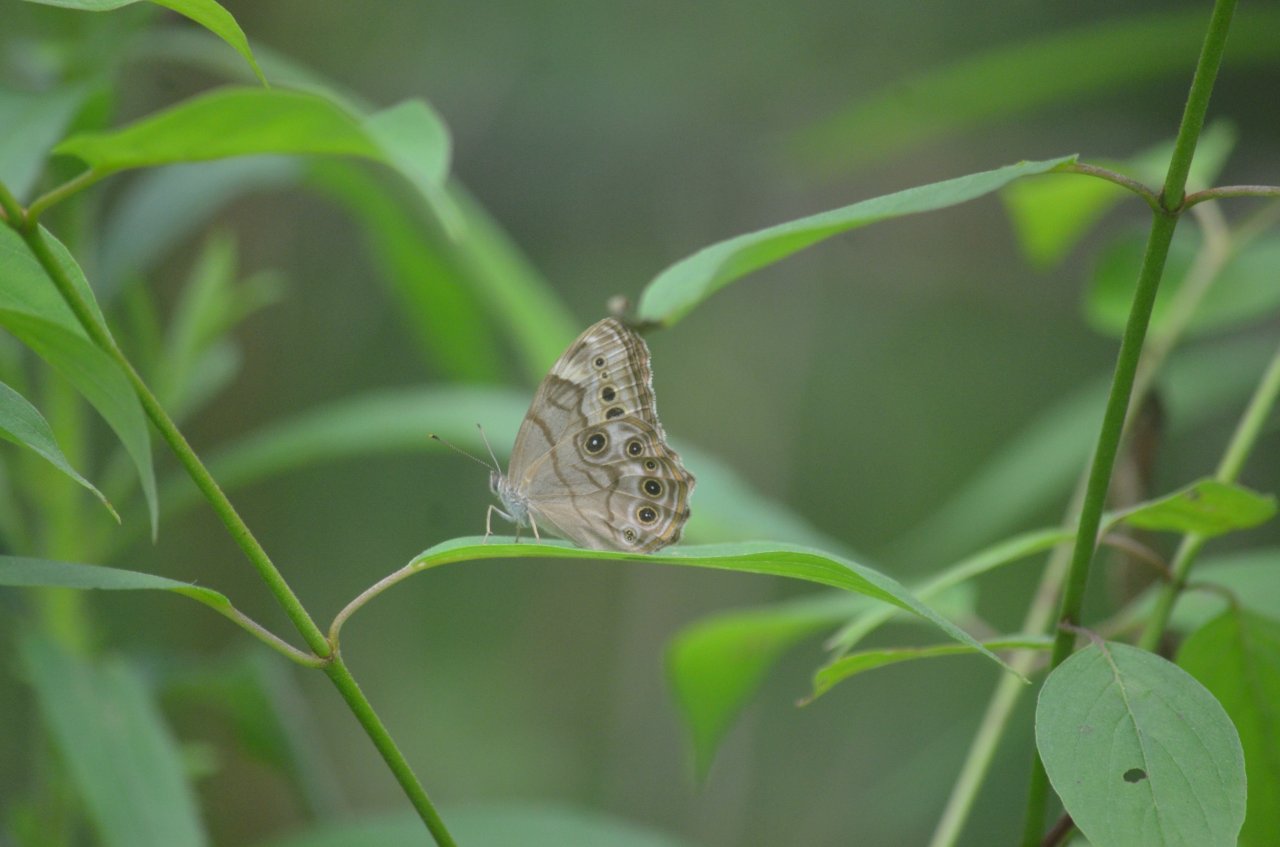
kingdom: Animalia
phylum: Arthropoda
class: Insecta
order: Lepidoptera
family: Nymphalidae
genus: Lethe
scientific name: Lethe anthedon
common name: Northern Pearly-Eye
